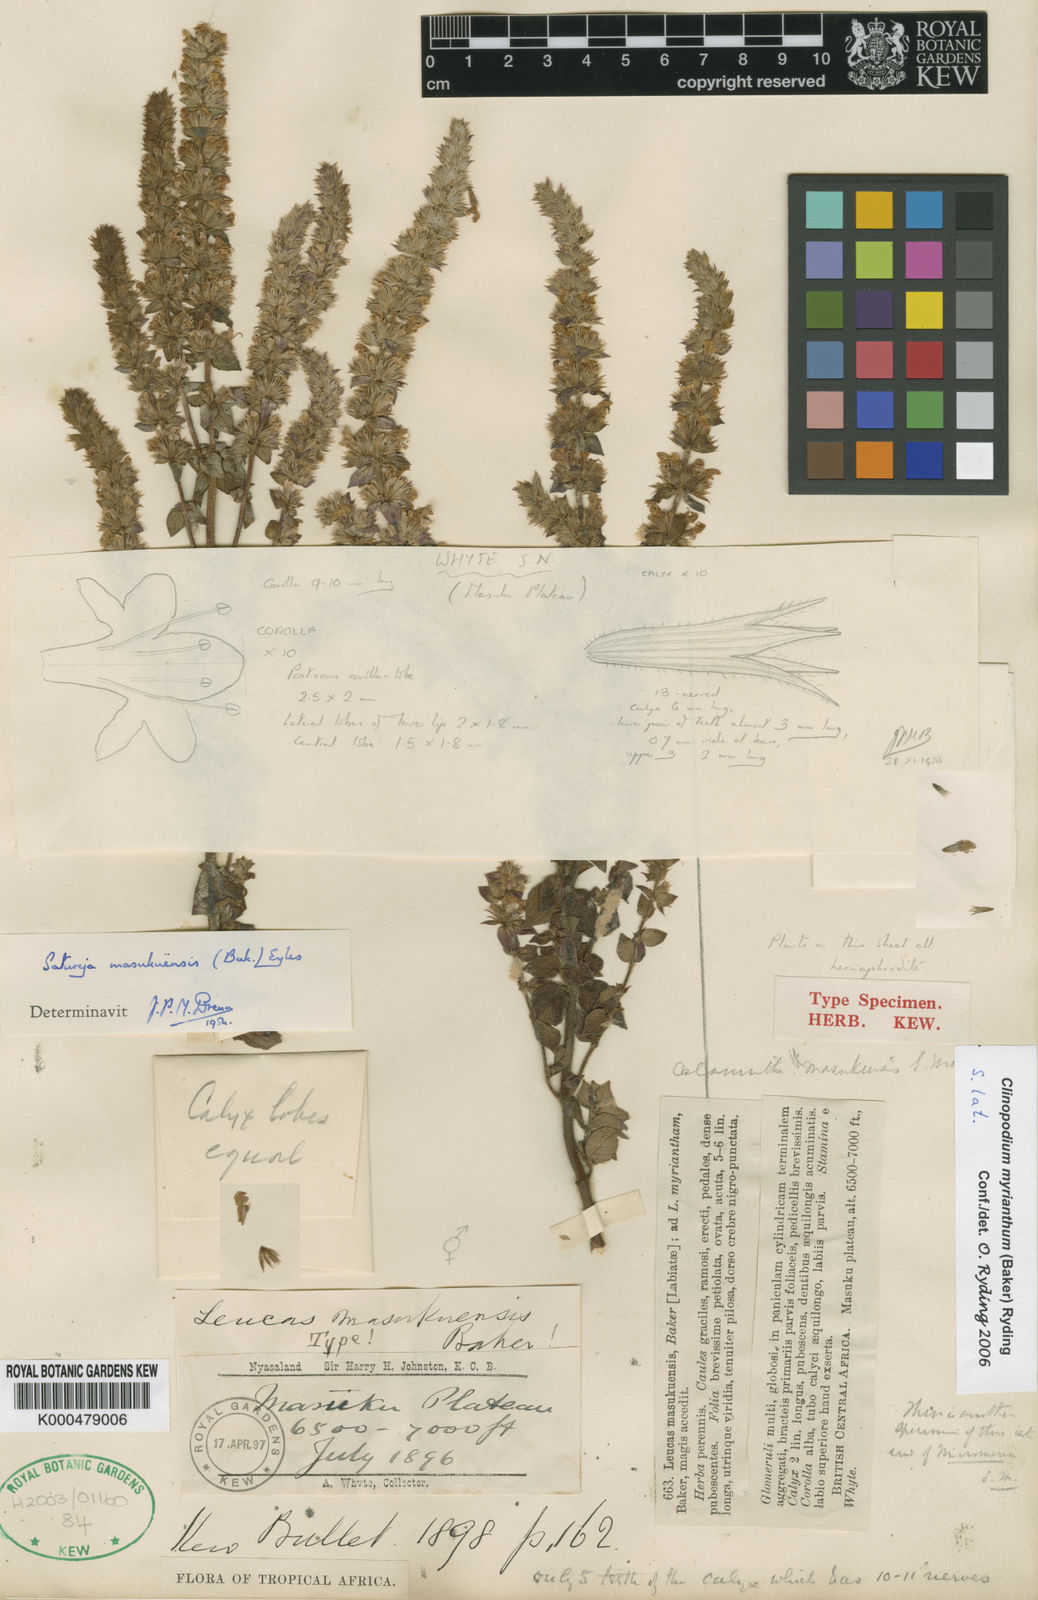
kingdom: Plantae
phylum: Tracheophyta
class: Magnoliopsida
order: Lamiales
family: Lamiaceae
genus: Clinopodium
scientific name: Clinopodium myrianthum
